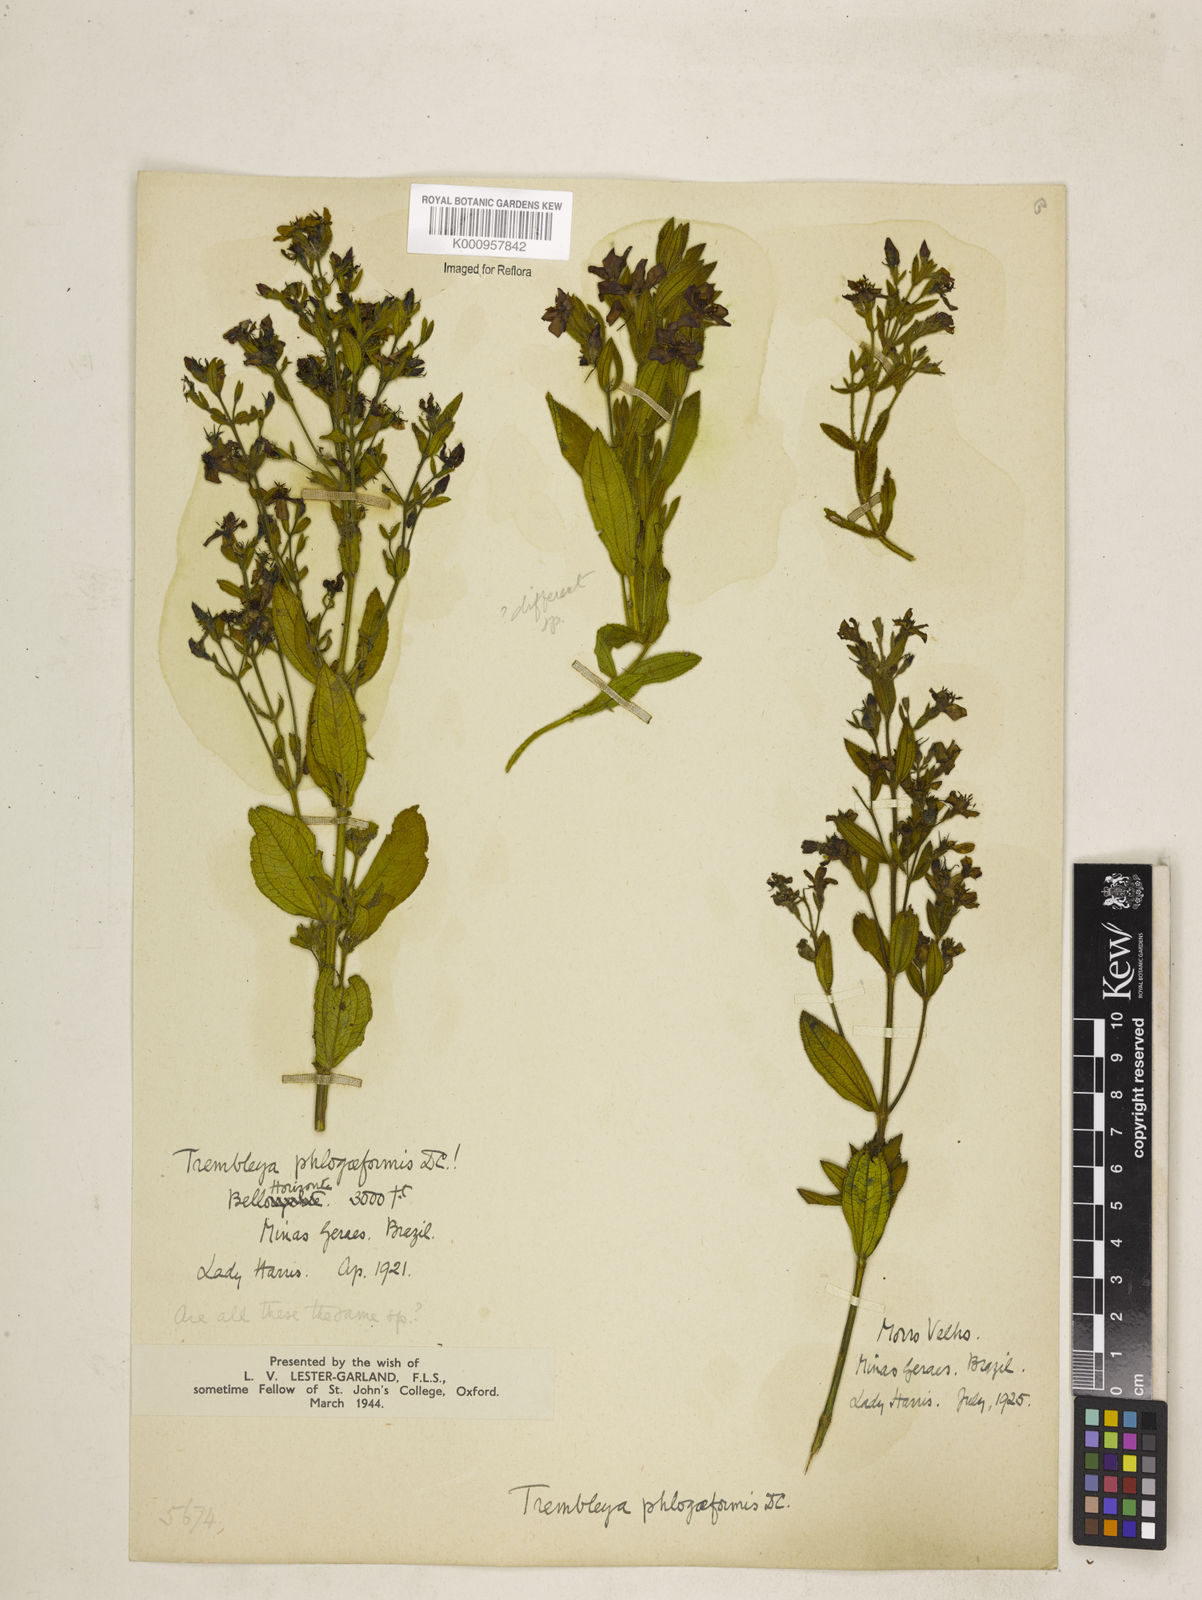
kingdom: Plantae
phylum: Tracheophyta
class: Magnoliopsida
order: Myrtales
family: Melastomataceae
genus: Microlicia
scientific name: Microlicia phlogiformis
